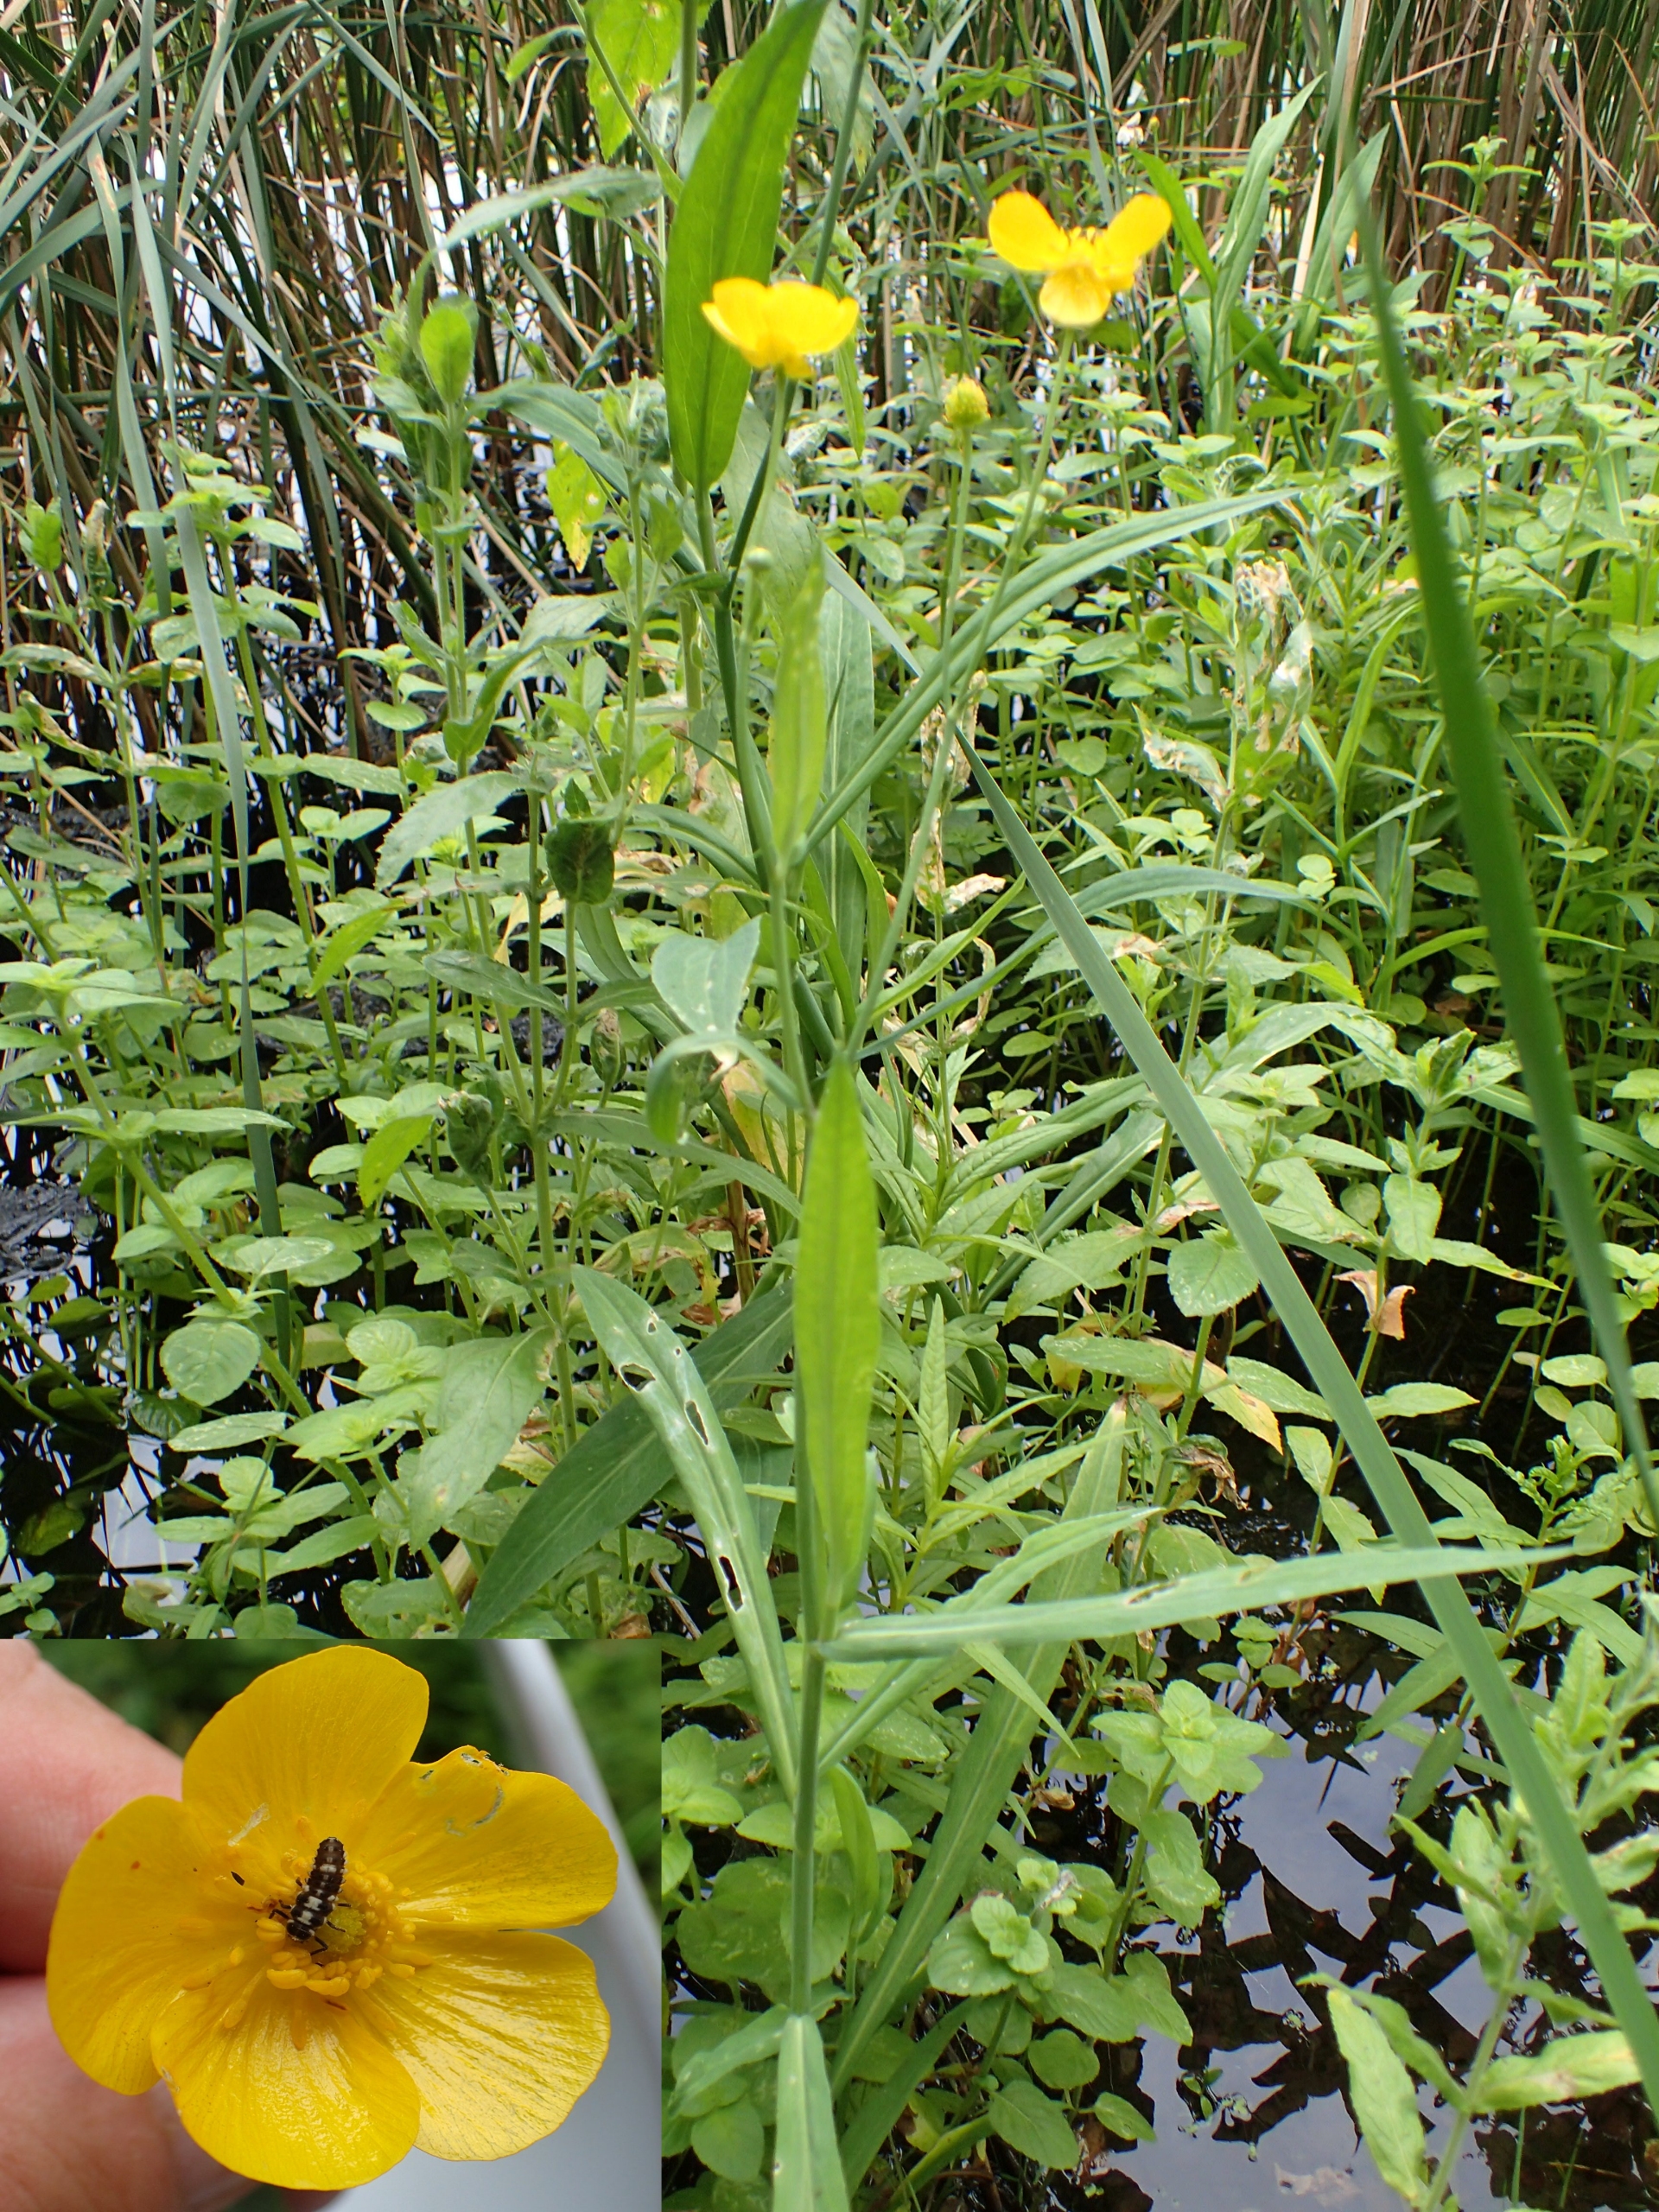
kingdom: Plantae
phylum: Tracheophyta
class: Magnoliopsida
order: Ranunculales
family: Ranunculaceae
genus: Ranunculus
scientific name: Ranunculus lingua
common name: Langbladet ranunkel
